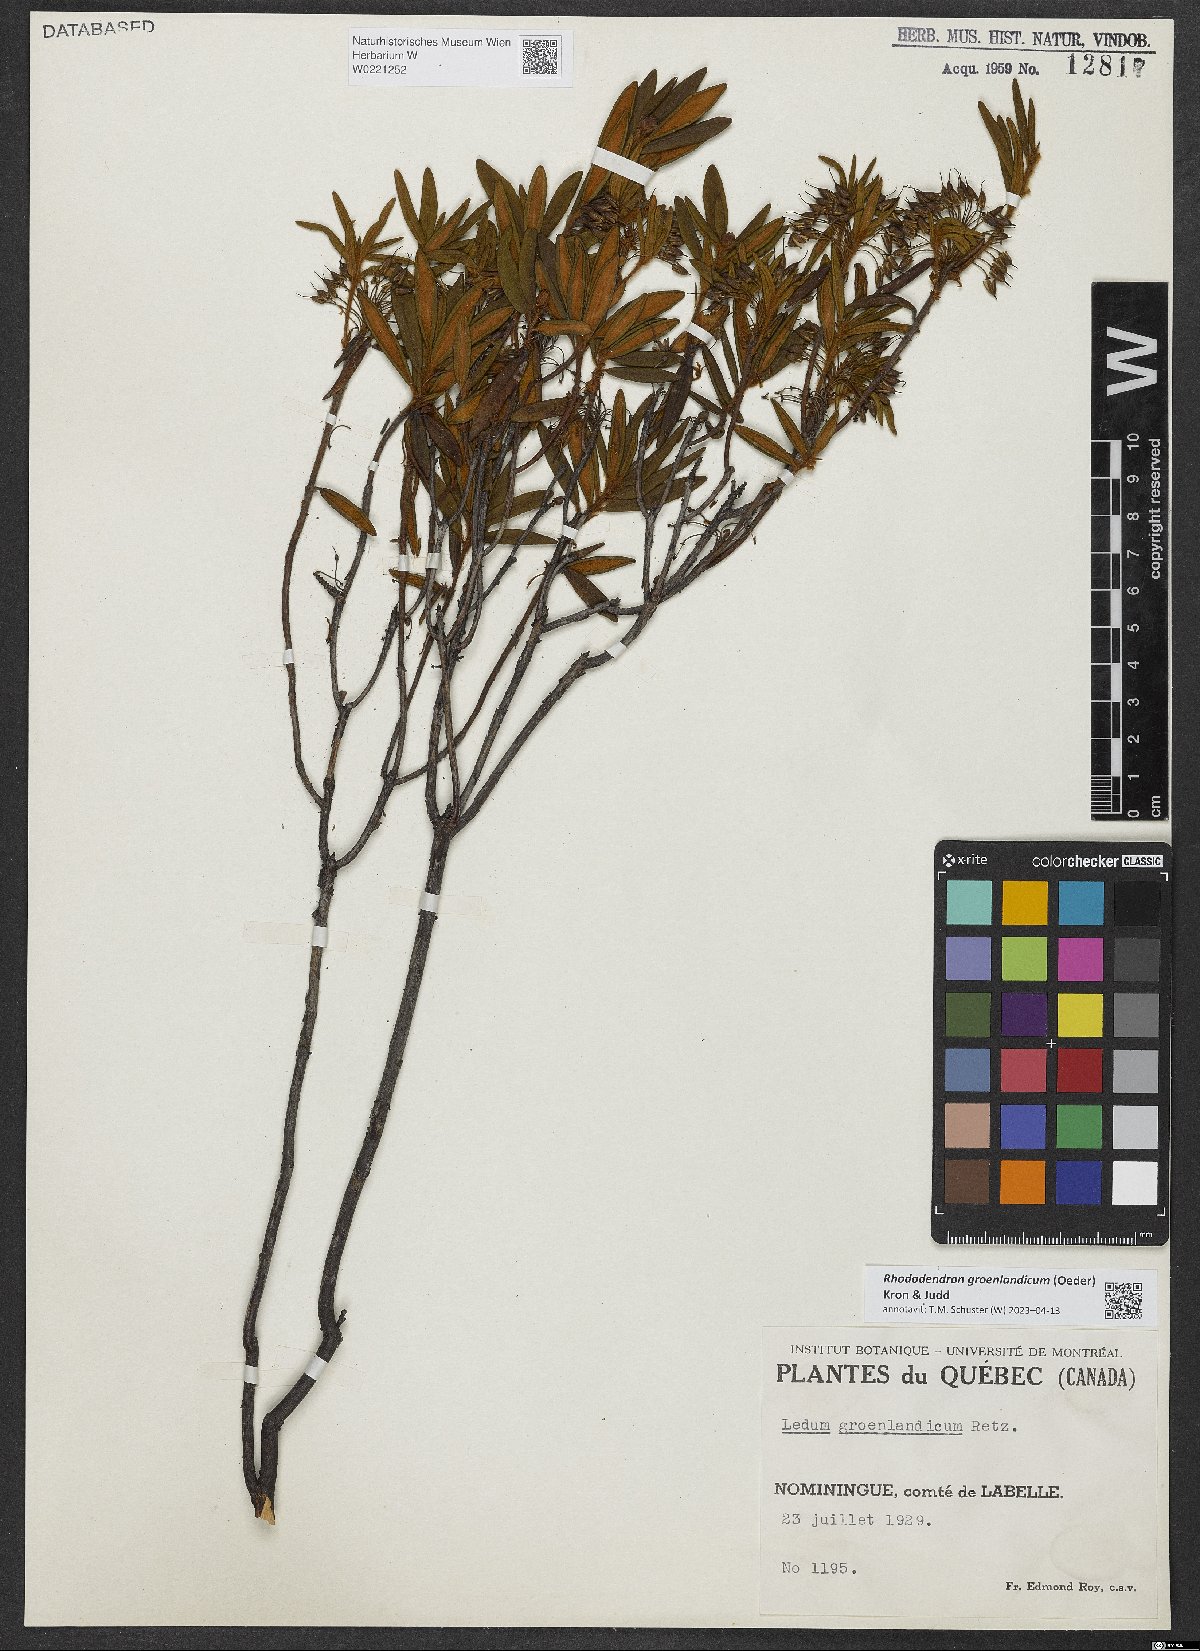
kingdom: Plantae
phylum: Tracheophyta
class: Magnoliopsida
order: Ericales
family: Ericaceae
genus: Rhododendron
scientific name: Rhododendron groenlandicum
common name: Bog labrador tea
